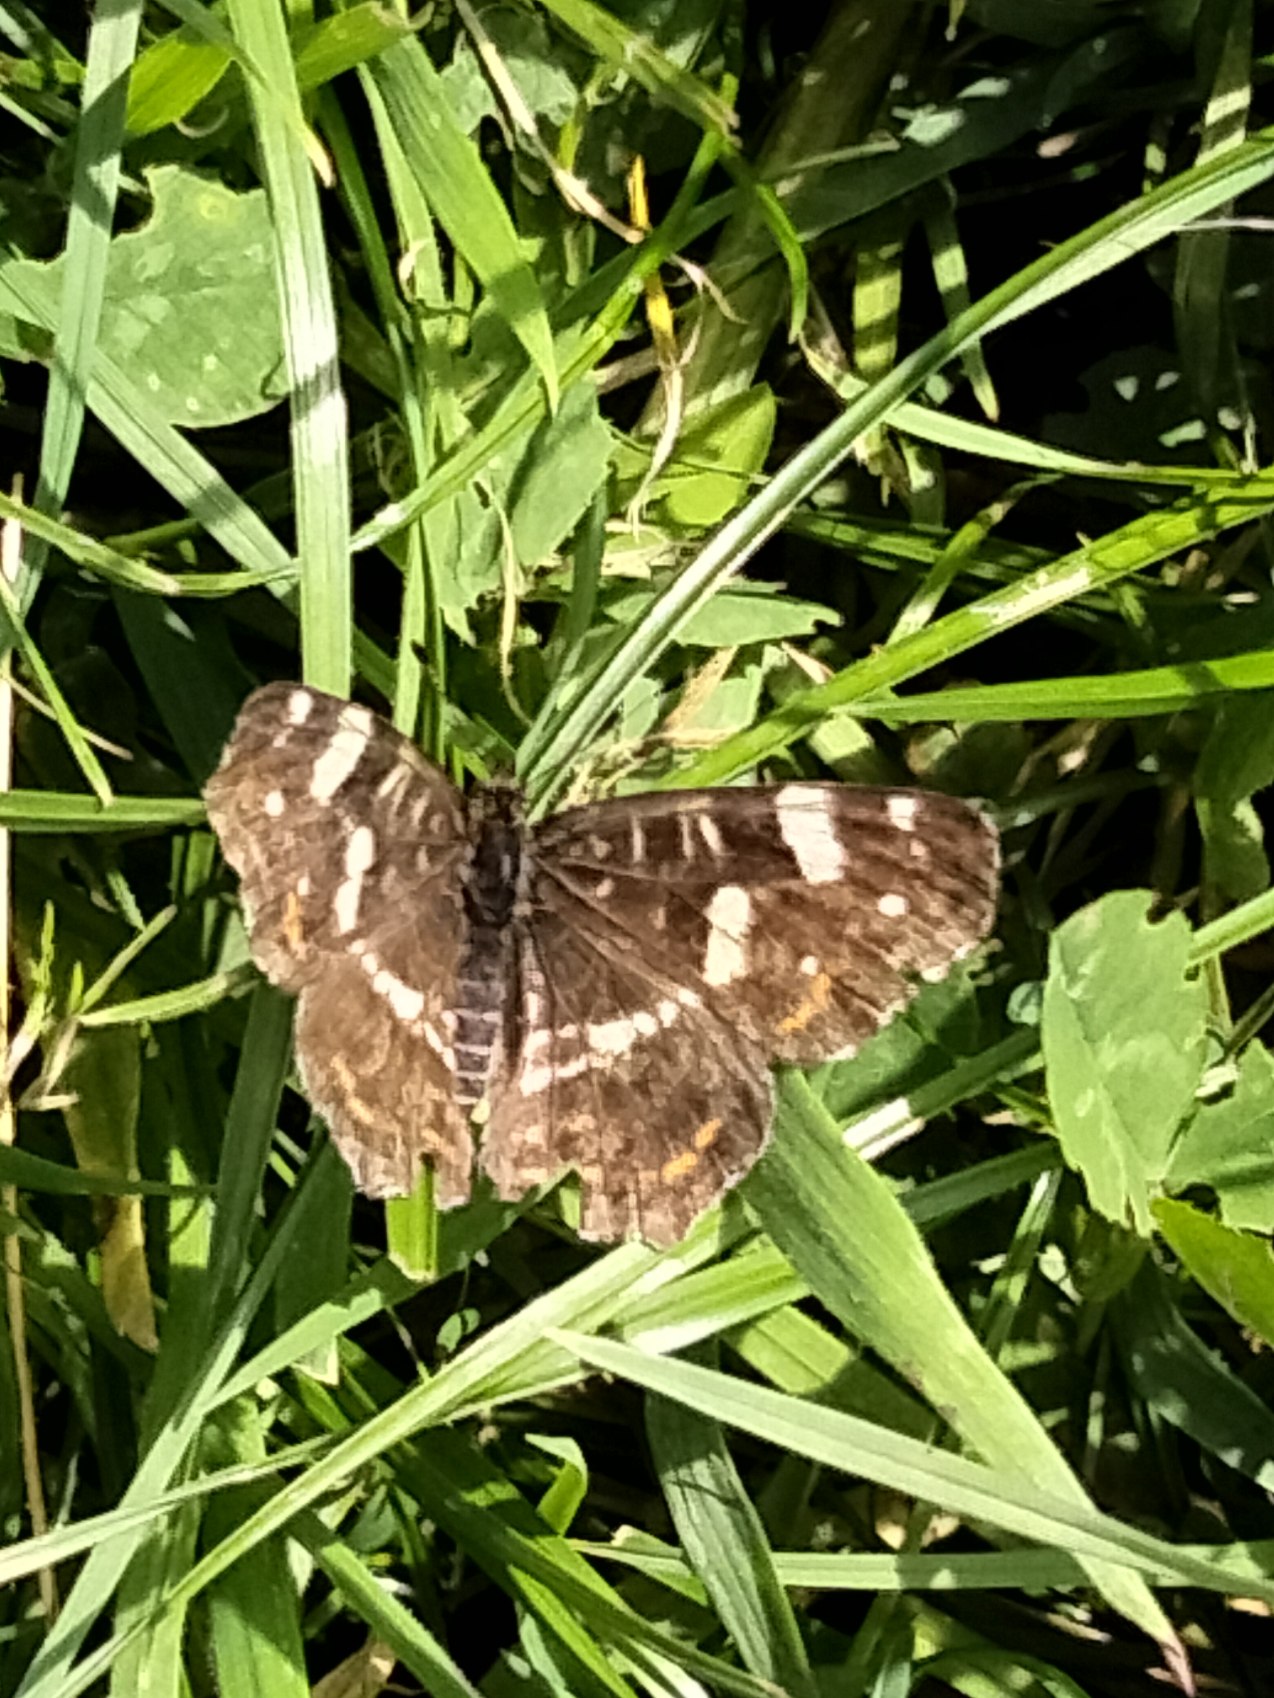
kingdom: Animalia
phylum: Arthropoda
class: Insecta
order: Lepidoptera
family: Nymphalidae
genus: Araschnia
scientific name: Araschnia levana
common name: Nældesommerfugl
